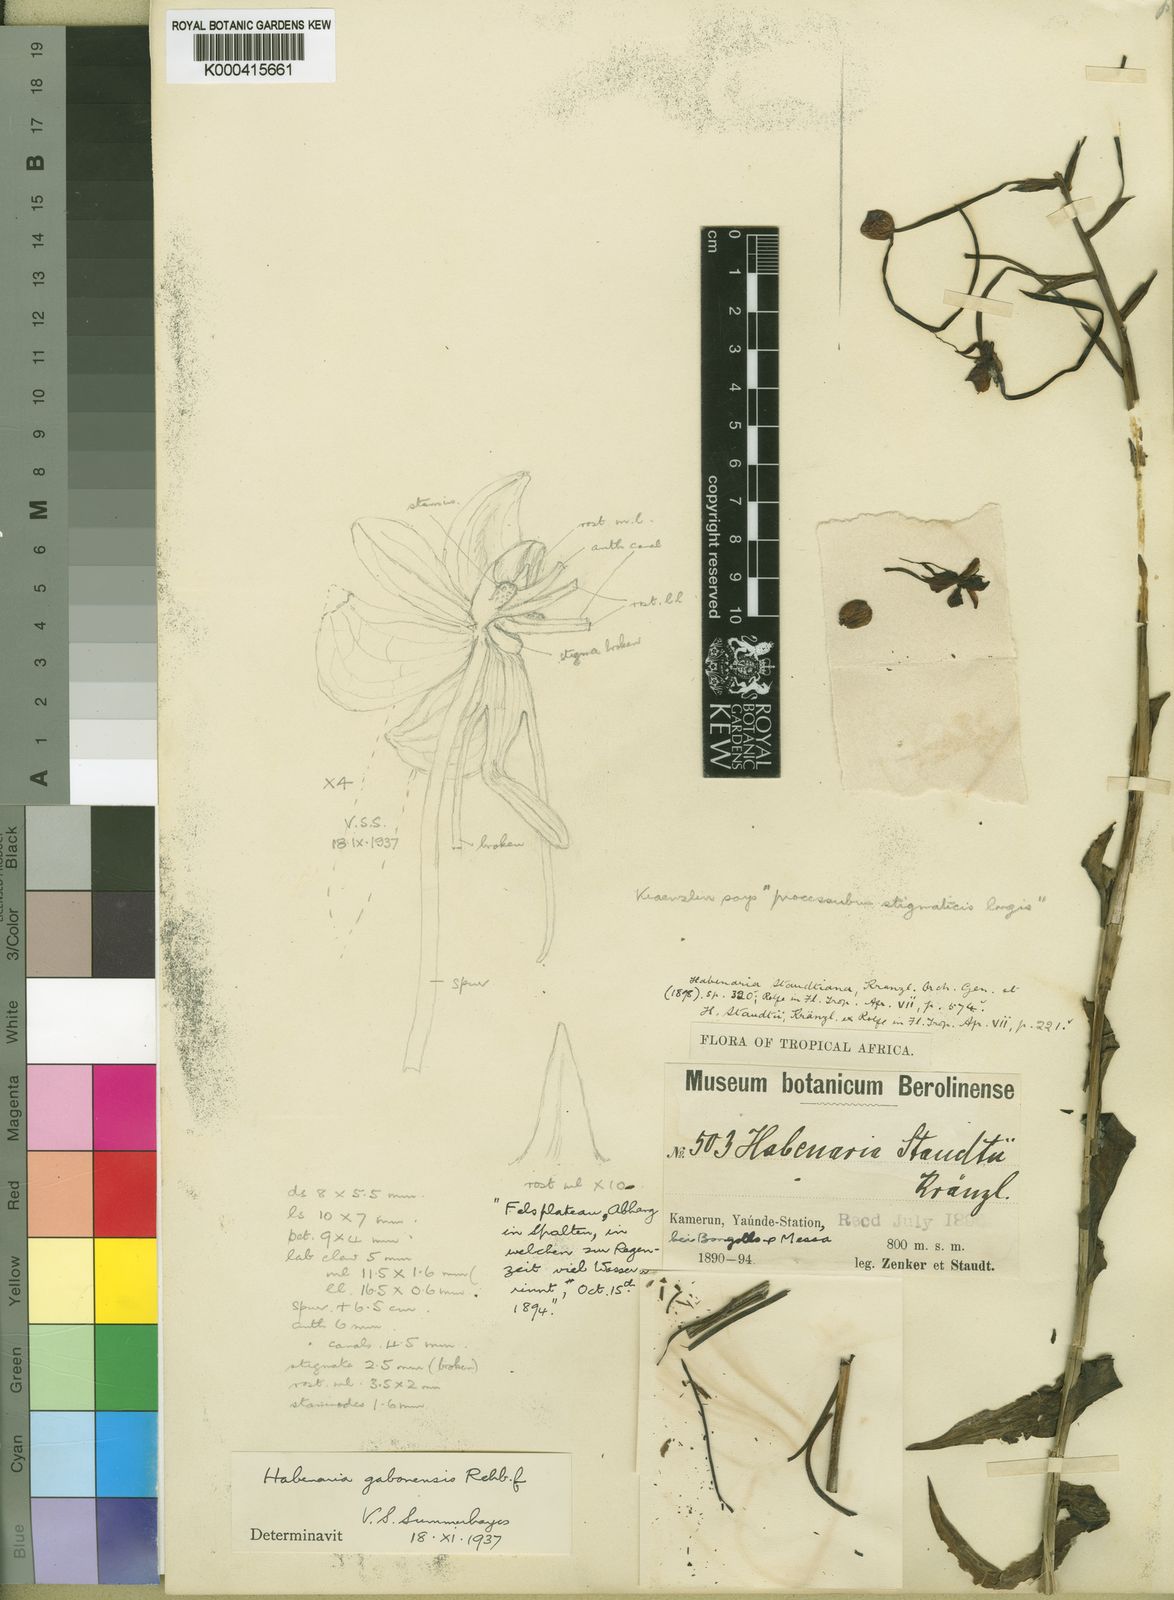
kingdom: Plantae
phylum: Tracheophyta
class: Liliopsida
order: Asparagales
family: Orchidaceae
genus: Habenaria
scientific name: Habenaria procera
